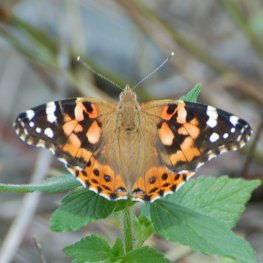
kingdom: Animalia
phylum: Arthropoda
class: Insecta
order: Lepidoptera
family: Nymphalidae
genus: Vanessa
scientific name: Vanessa cardui
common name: Painted Lady
